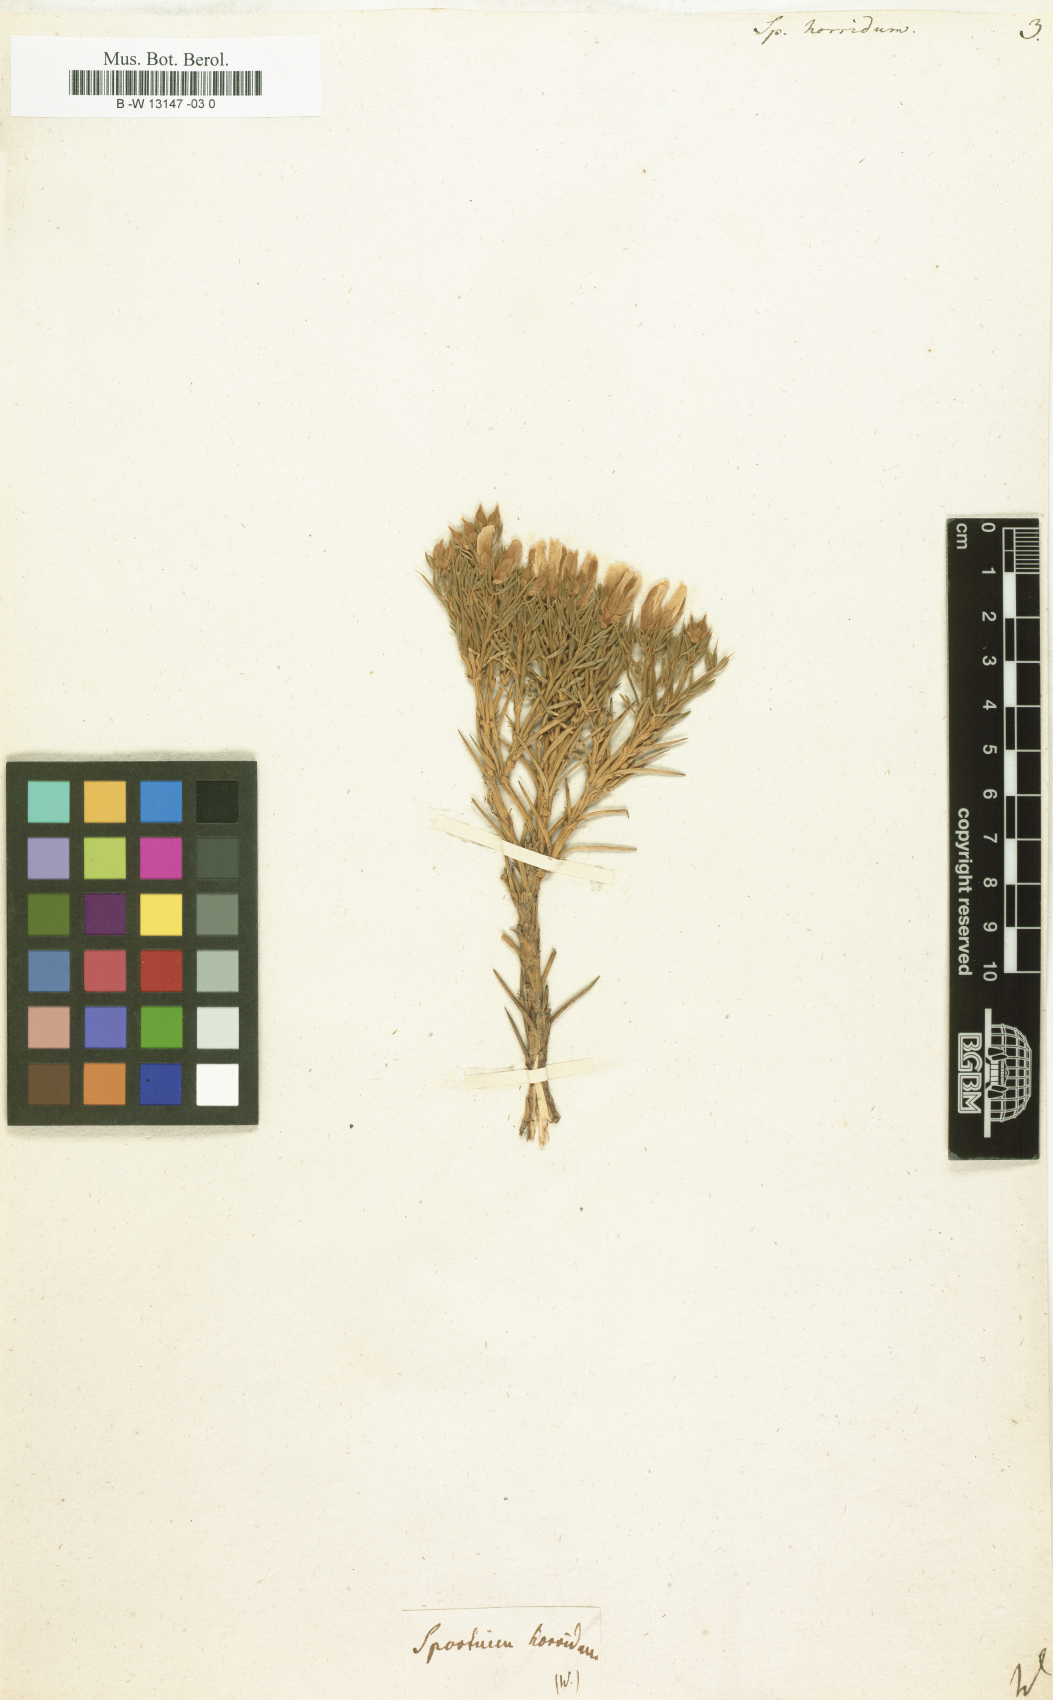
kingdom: Plantae
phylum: Tracheophyta
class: Magnoliopsida
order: Fabales
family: Fabaceae
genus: Echinospartum
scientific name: Echinospartum horridum
